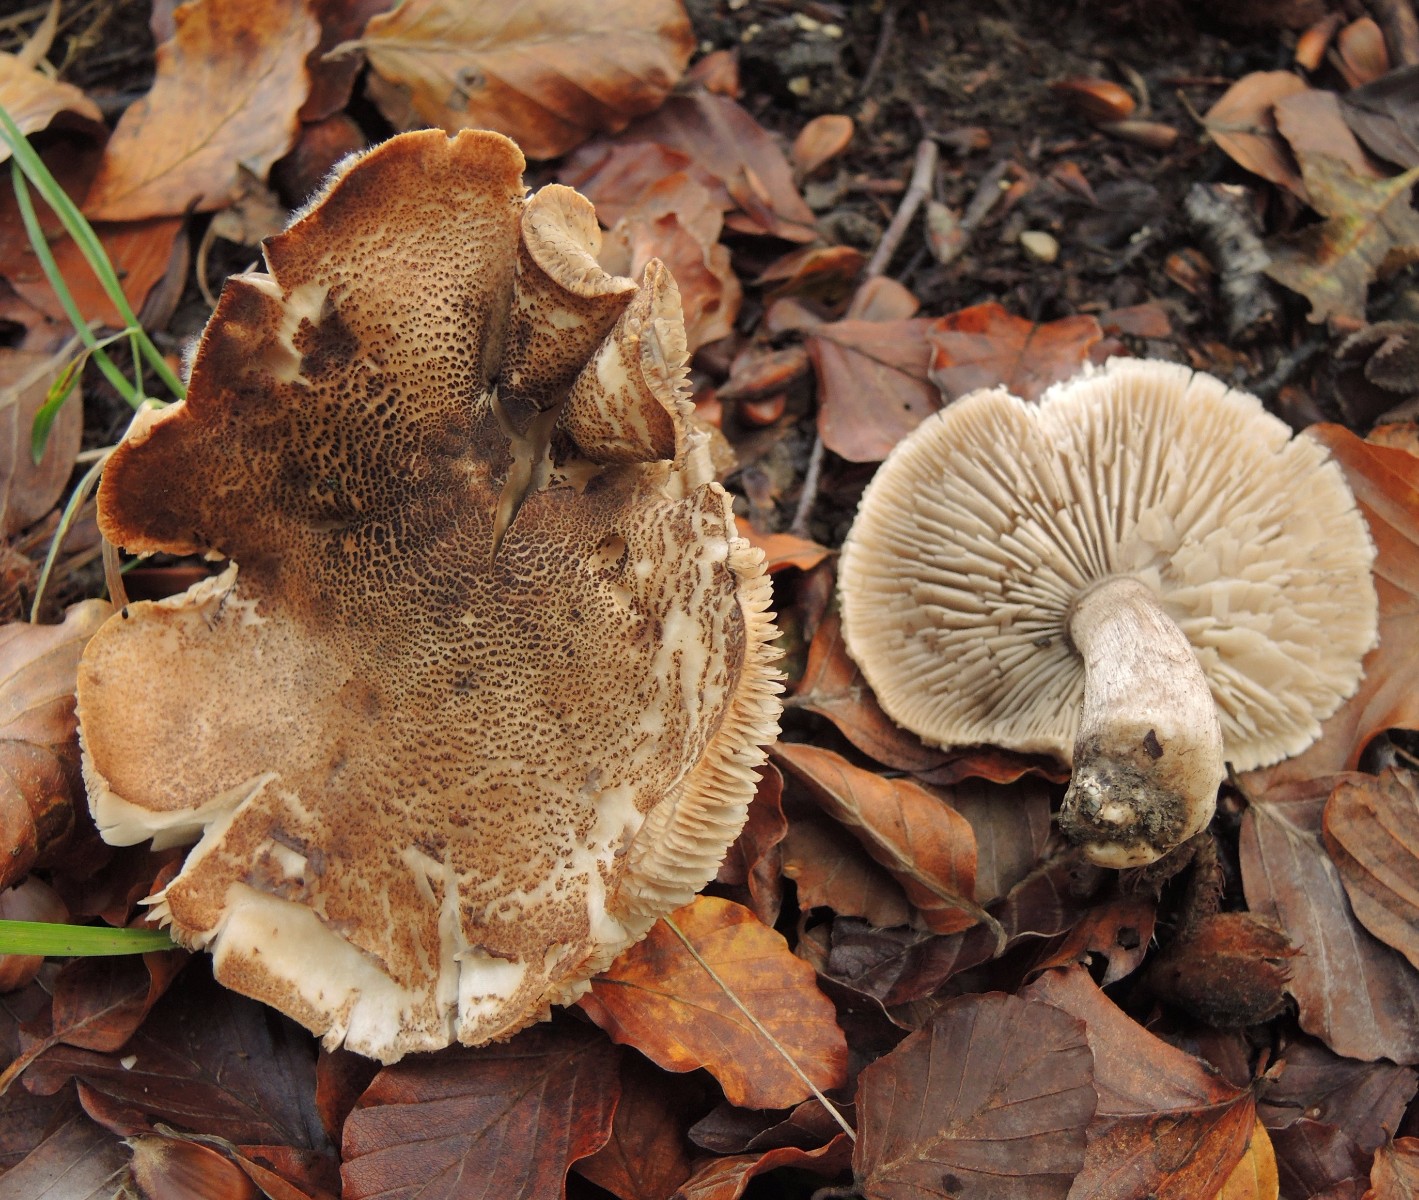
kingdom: Fungi
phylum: Basidiomycota
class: Agaricomycetes
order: Agaricales
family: Tricholomataceae
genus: Tricholoma
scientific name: Tricholoma atrosquamosum
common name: sortskællet ridderhat
